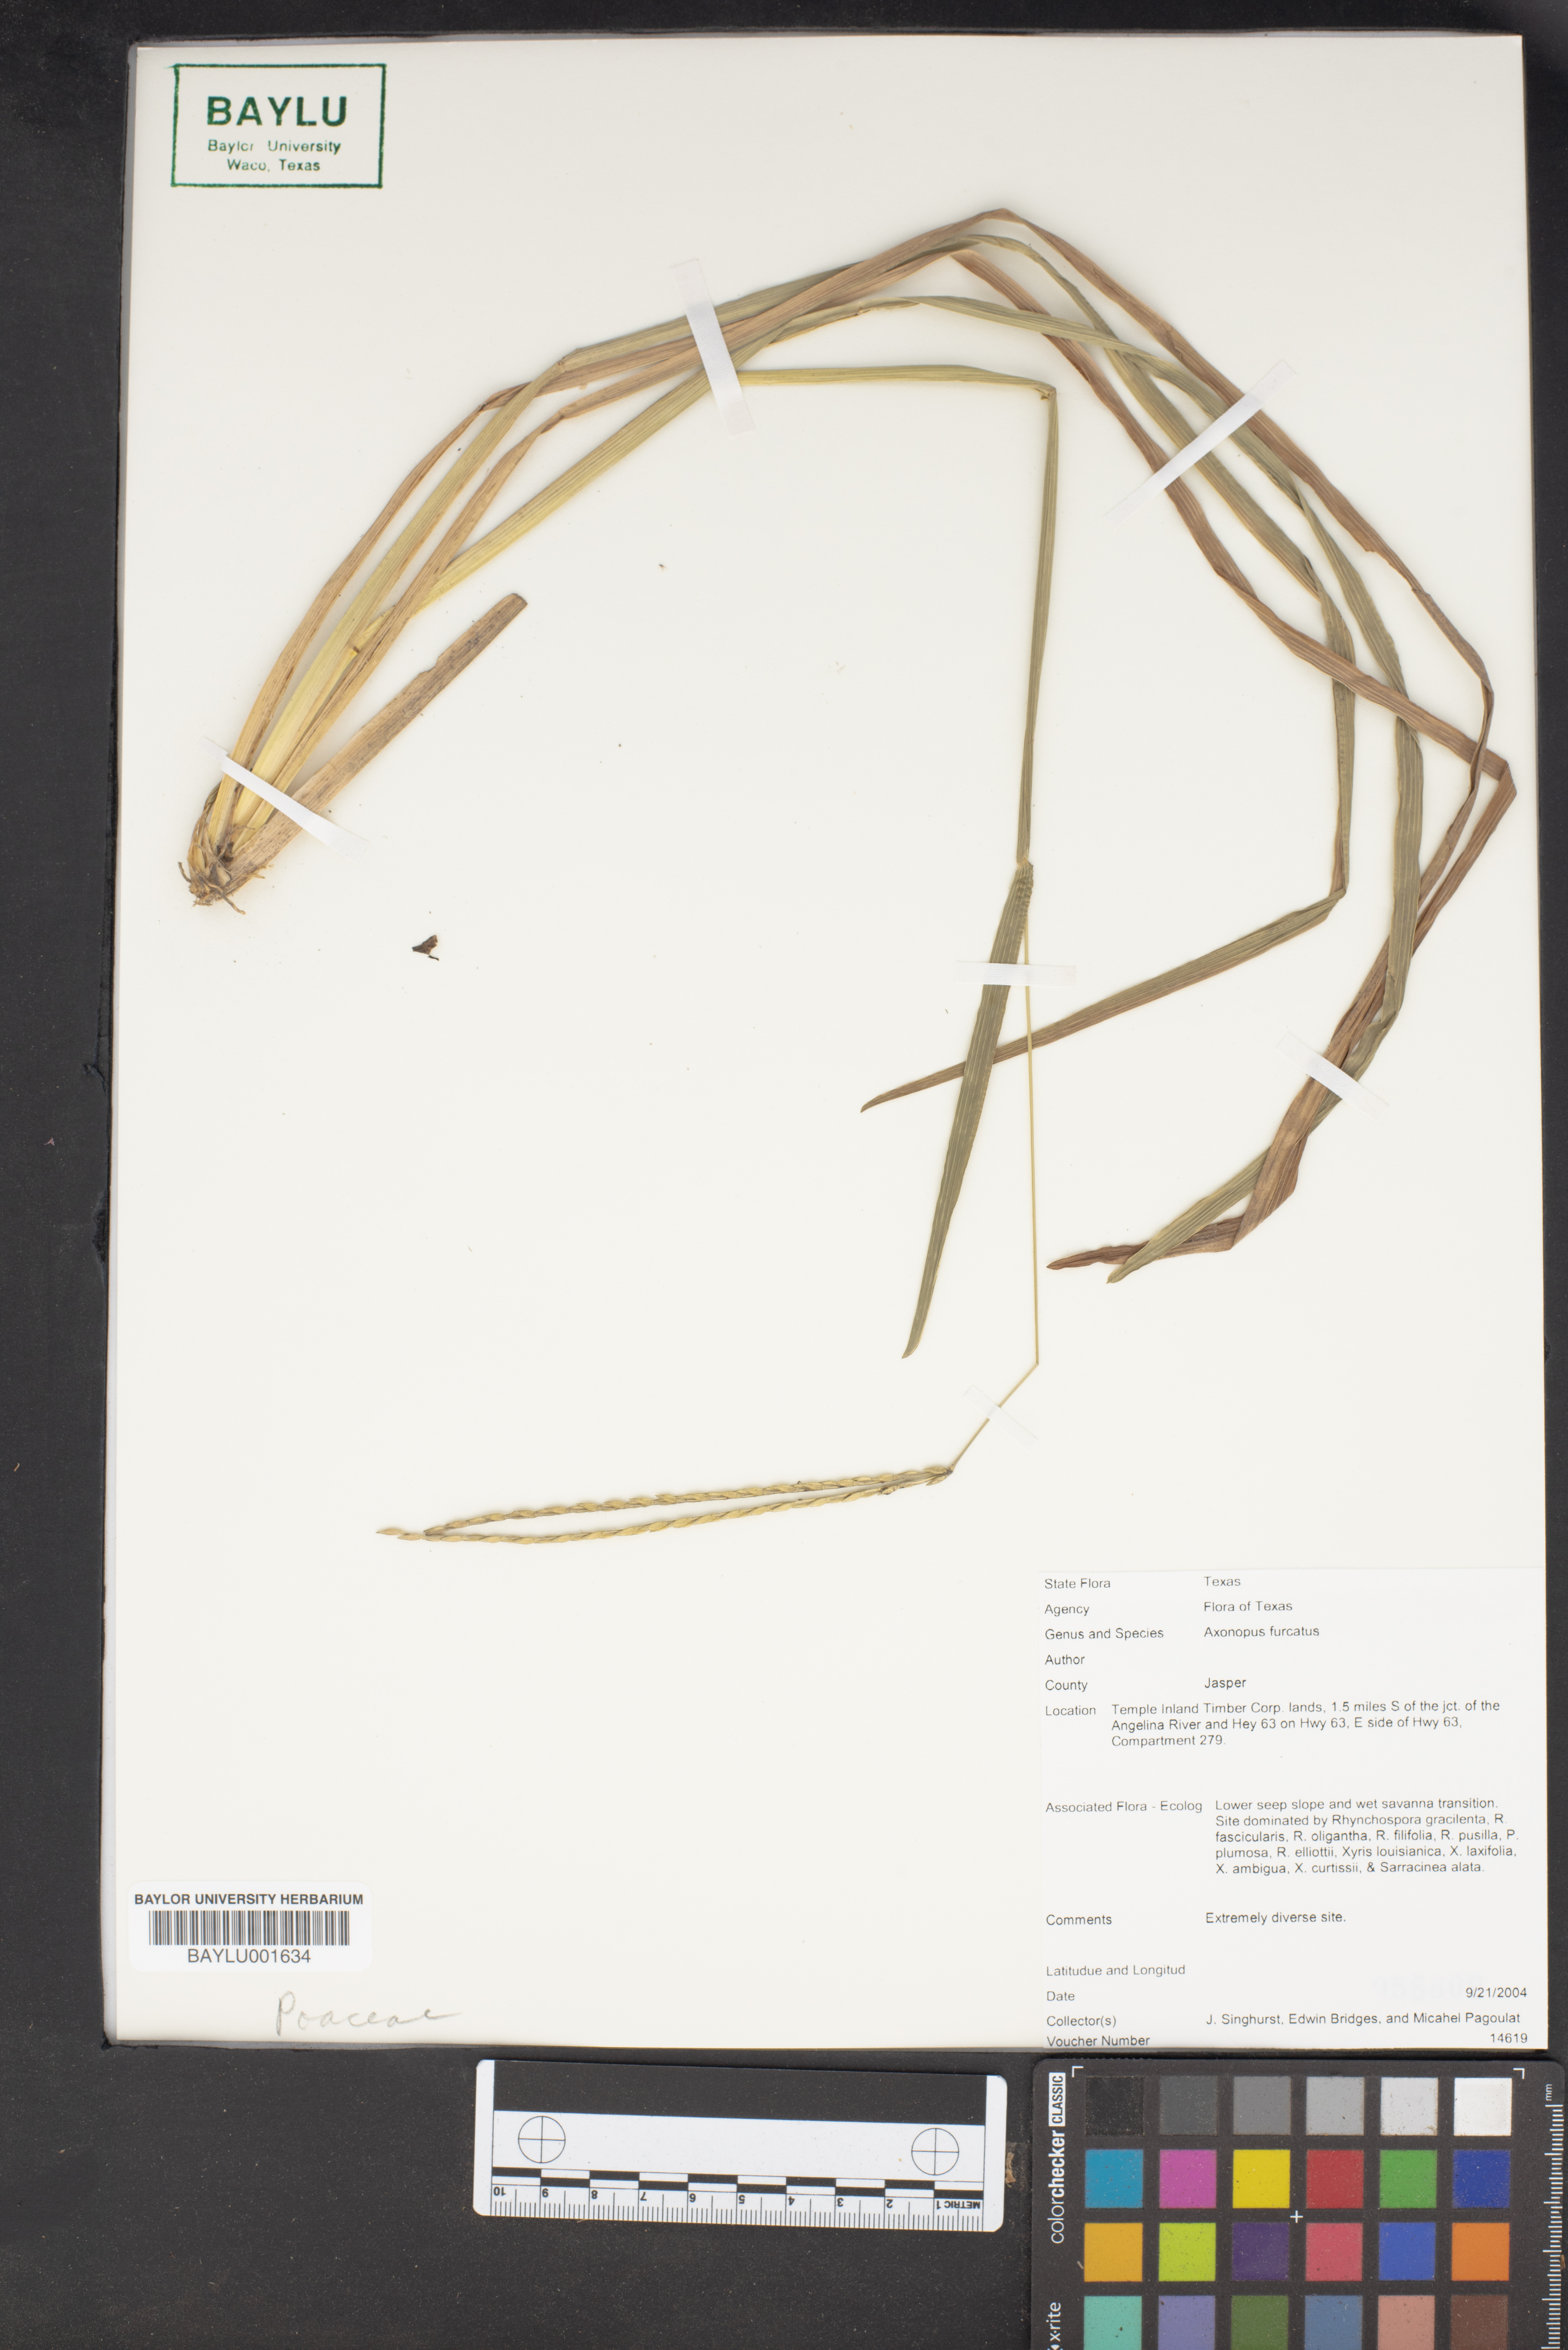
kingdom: Plantae
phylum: Tracheophyta
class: Liliopsida
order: Poales
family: Poaceae
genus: Axonopus
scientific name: Axonopus furcatus
